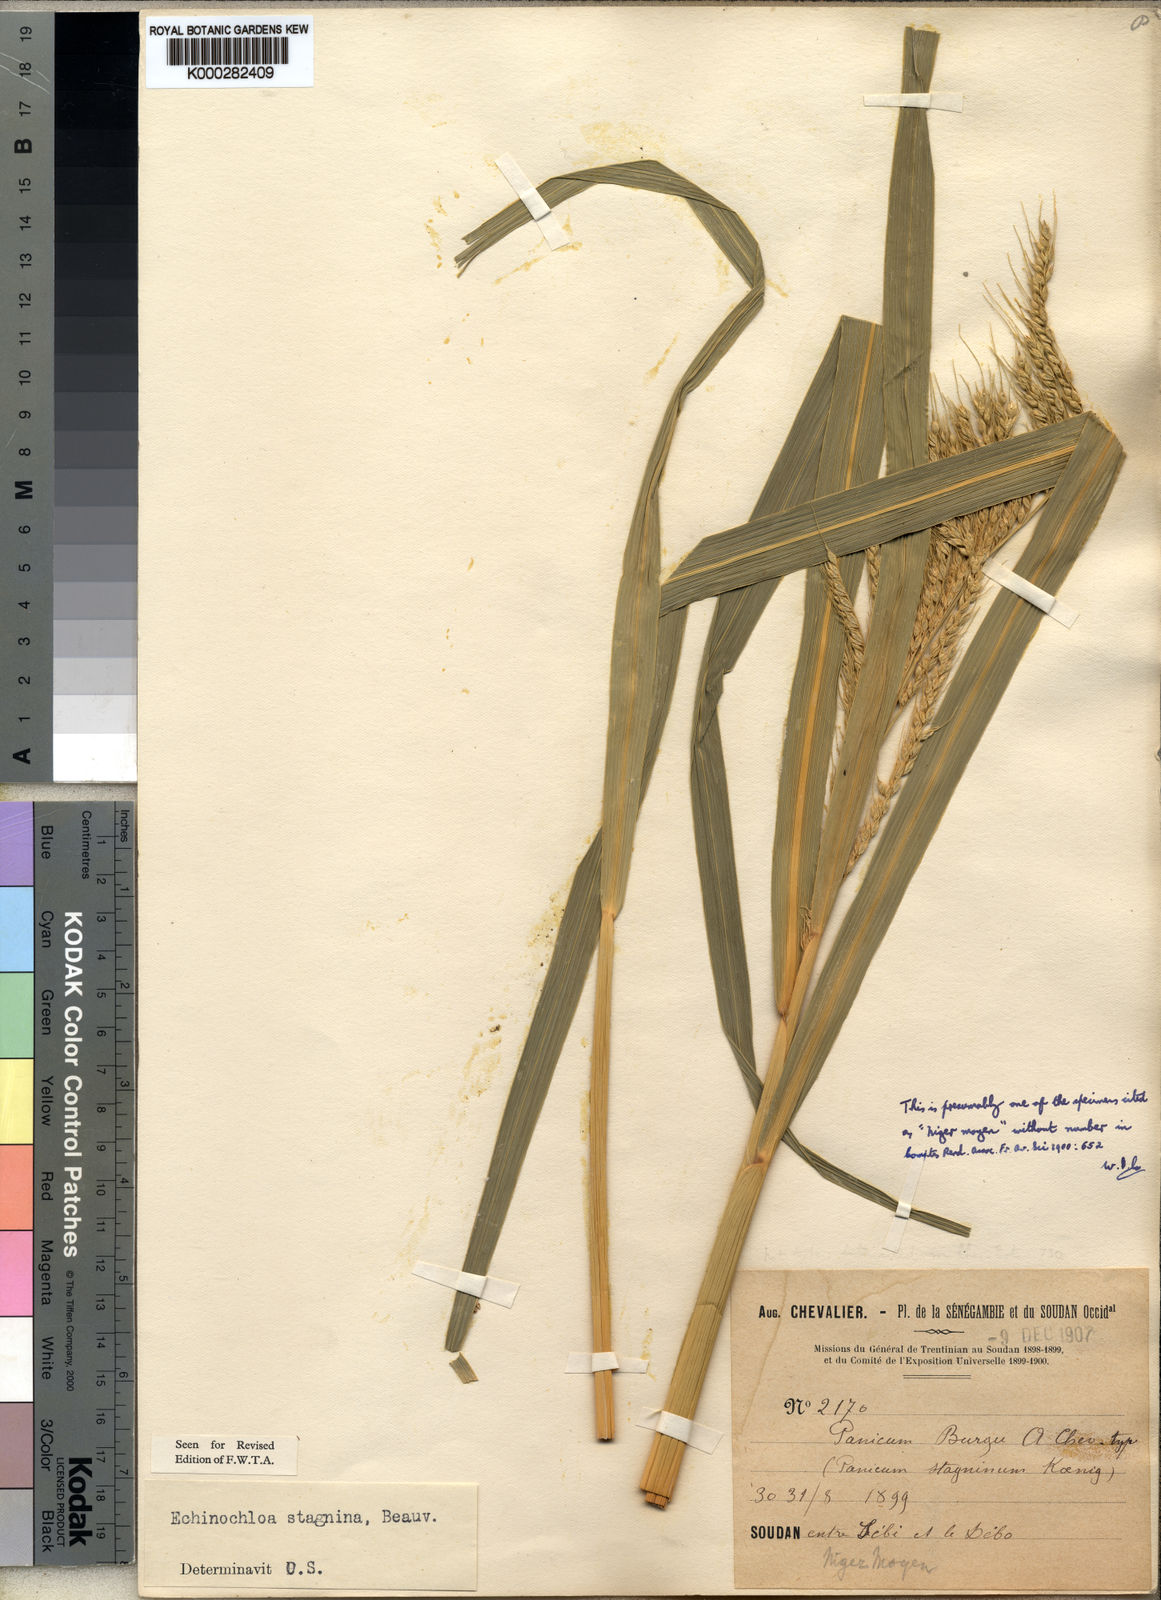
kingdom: Plantae
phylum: Tracheophyta
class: Liliopsida
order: Poales
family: Poaceae
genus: Echinochloa
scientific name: Echinochloa stagnina
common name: Burgu grass
